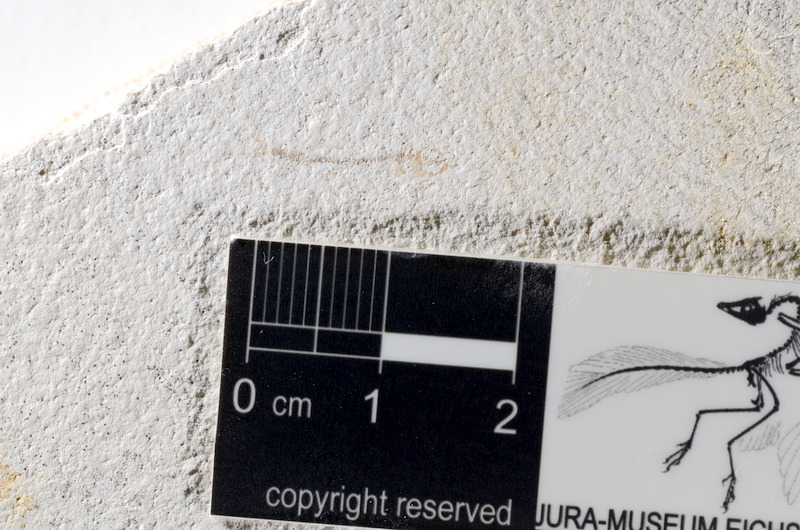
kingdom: Animalia
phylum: Chordata
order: Salmoniformes
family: Orthogonikleithridae
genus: Orthogonikleithrus
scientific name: Orthogonikleithrus hoelli
